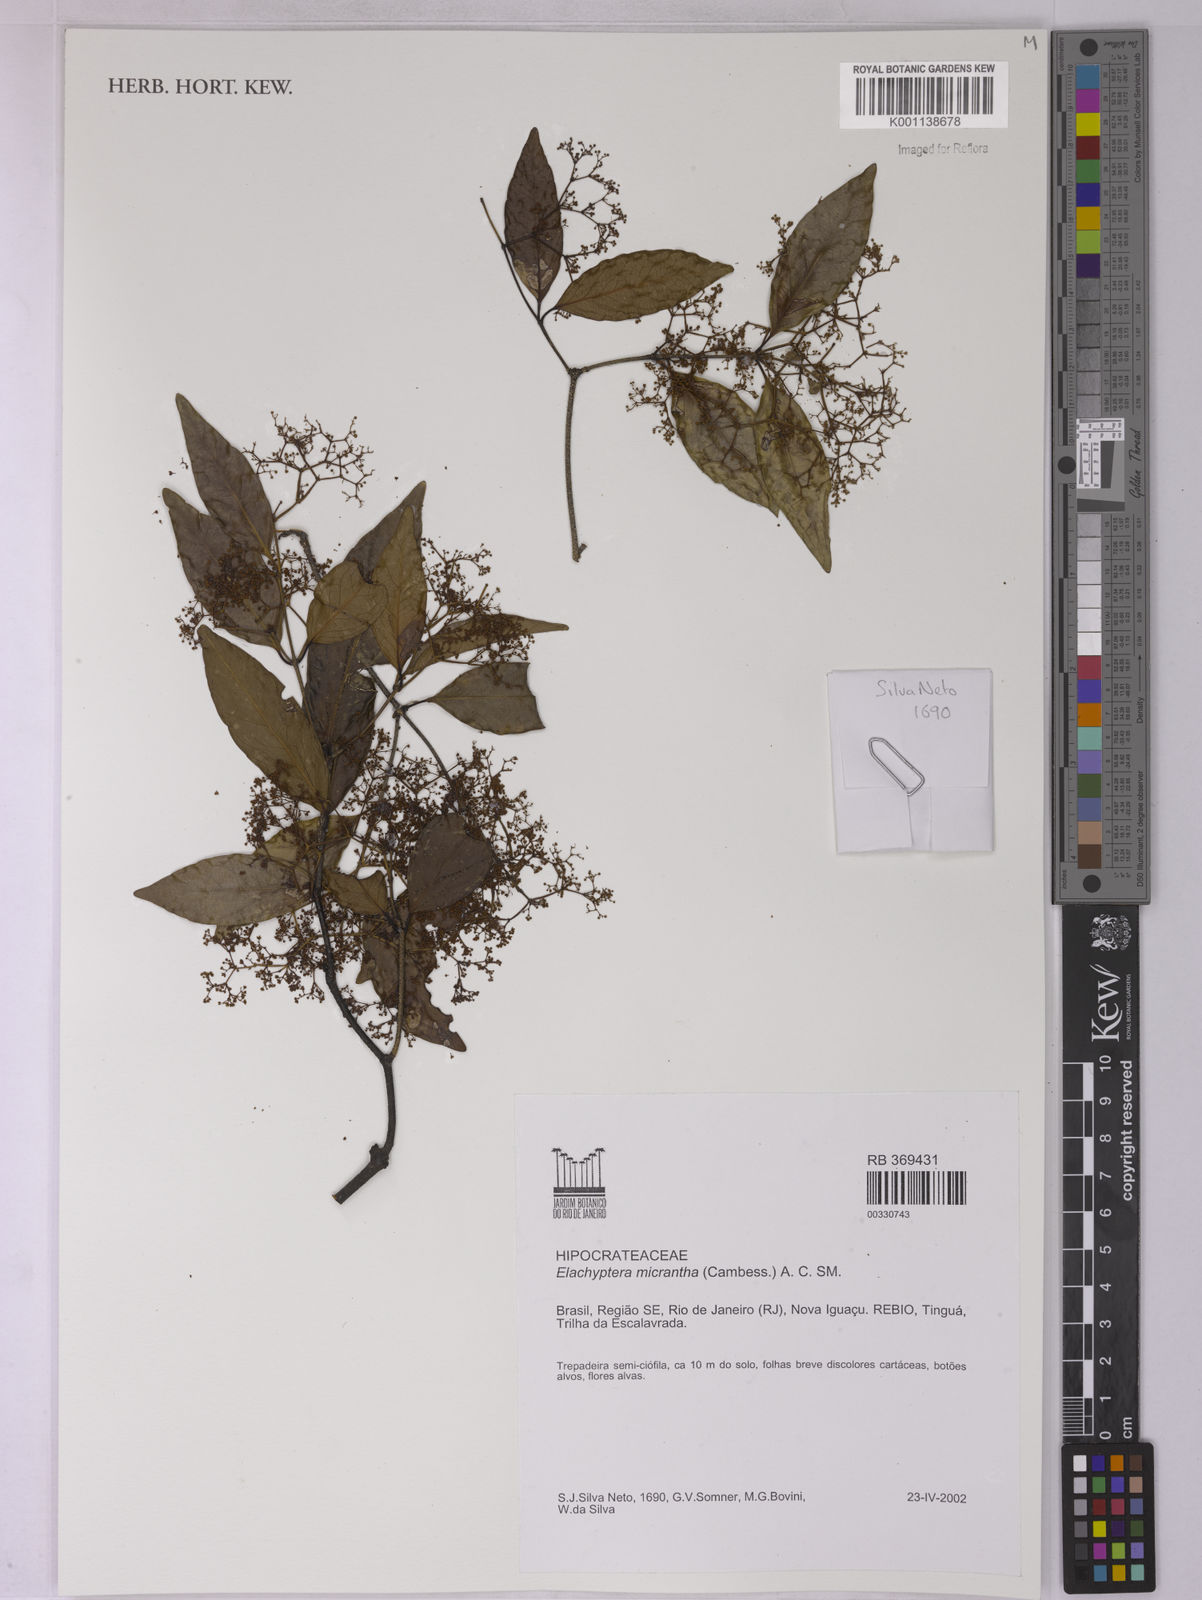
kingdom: Plantae
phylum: Tracheophyta
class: Magnoliopsida
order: Celastrales
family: Celastraceae
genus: Elachyptera
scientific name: Elachyptera micrantha
